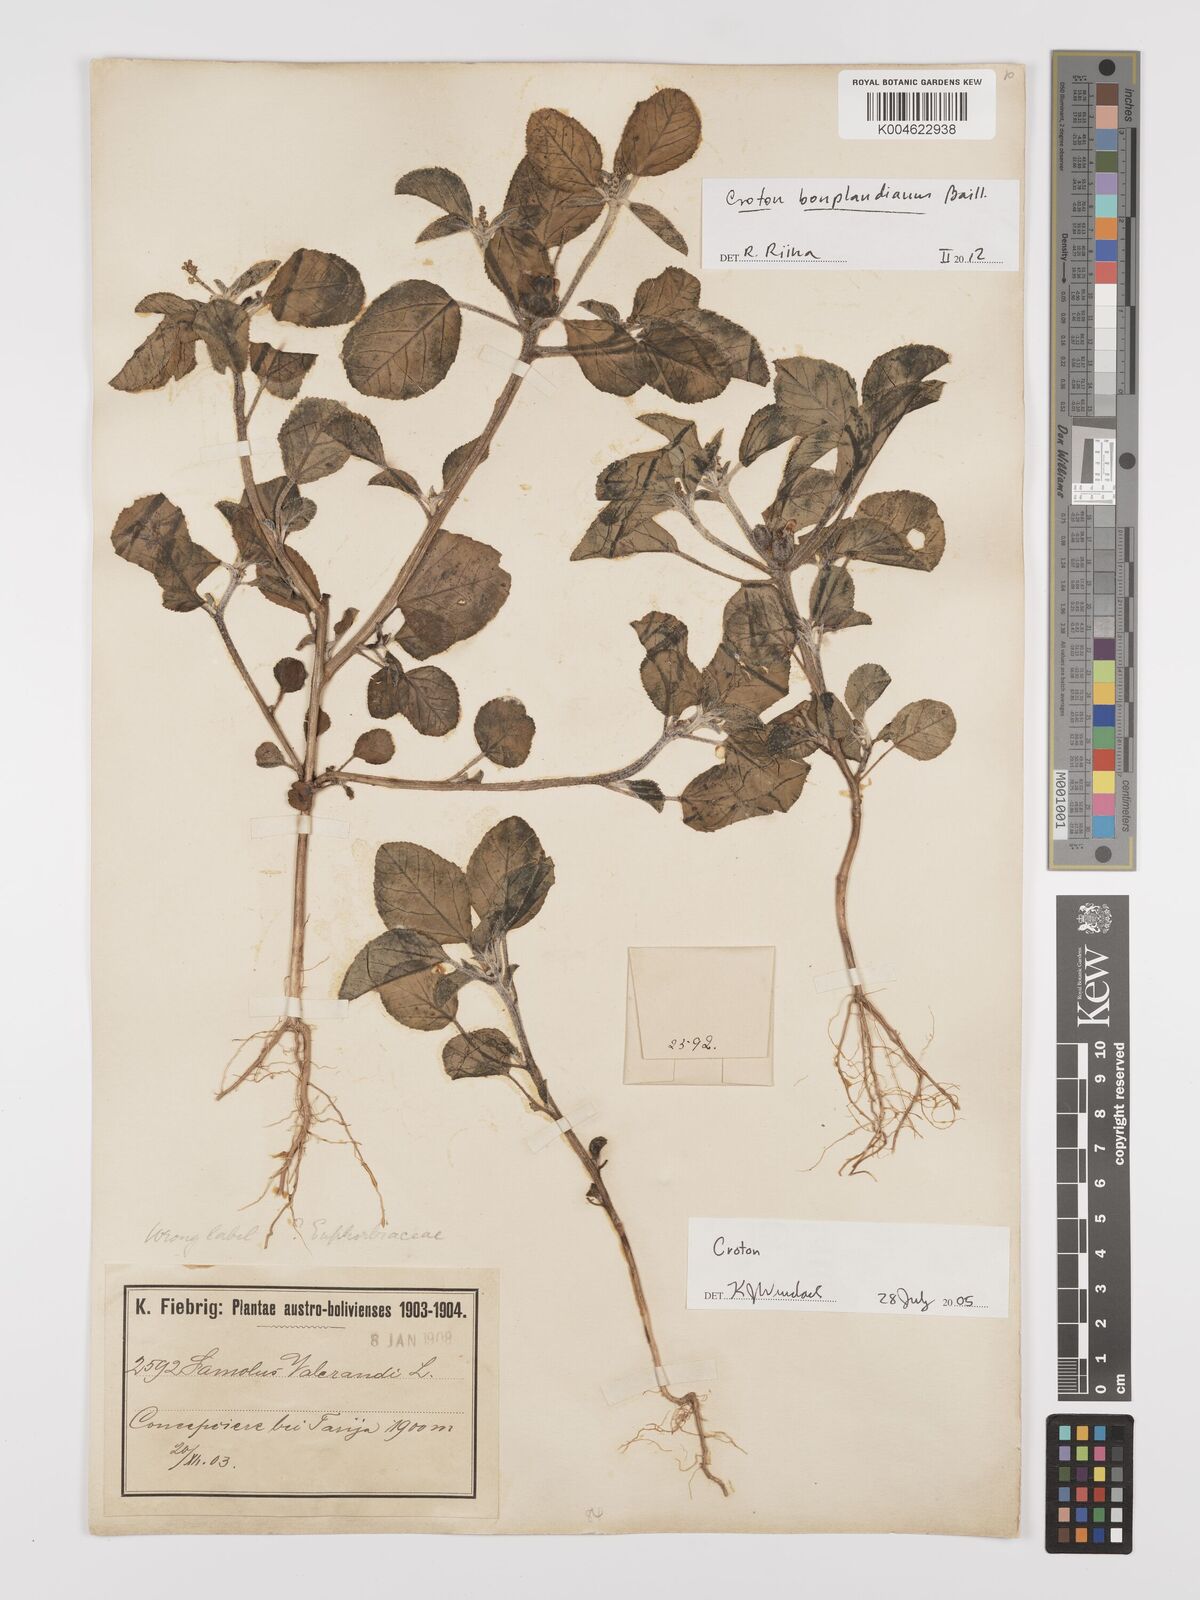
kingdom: Plantae
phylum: Tracheophyta
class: Magnoliopsida
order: Malpighiales
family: Euphorbiaceae
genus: Croton
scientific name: Croton bonplandianus
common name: Bonpland's croton
